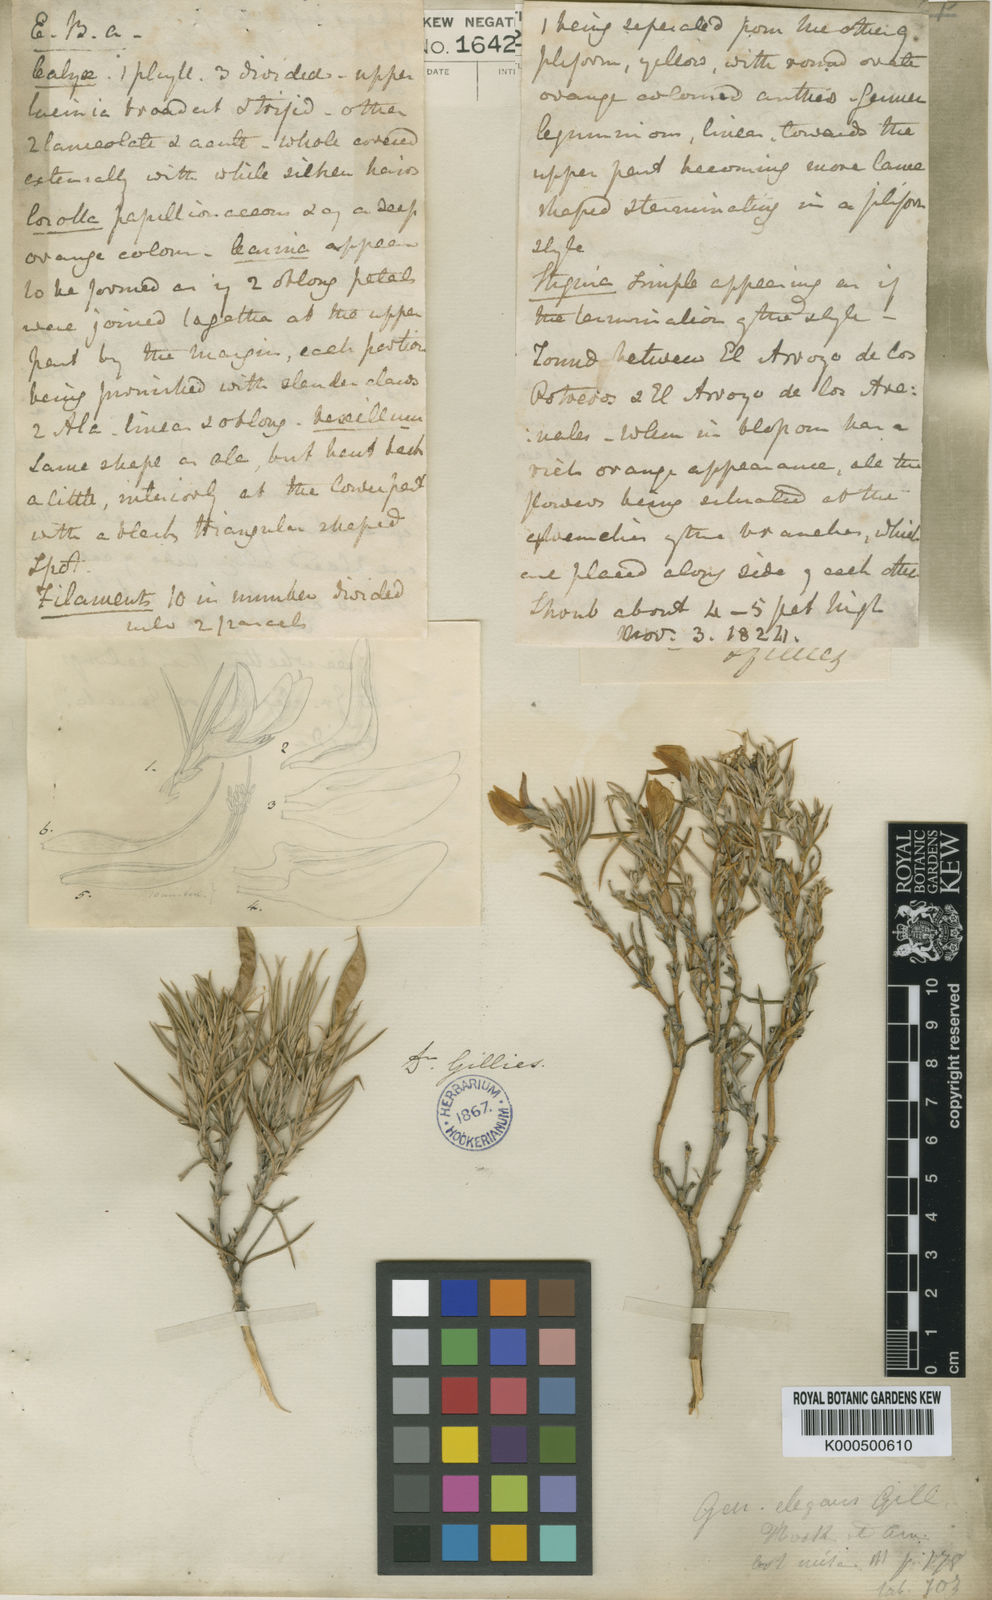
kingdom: Plantae
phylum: Tracheophyta
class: Magnoliopsida
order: Fabales
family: Fabaceae
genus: Anarthrophyllum
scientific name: Anarthrophyllum elegans
